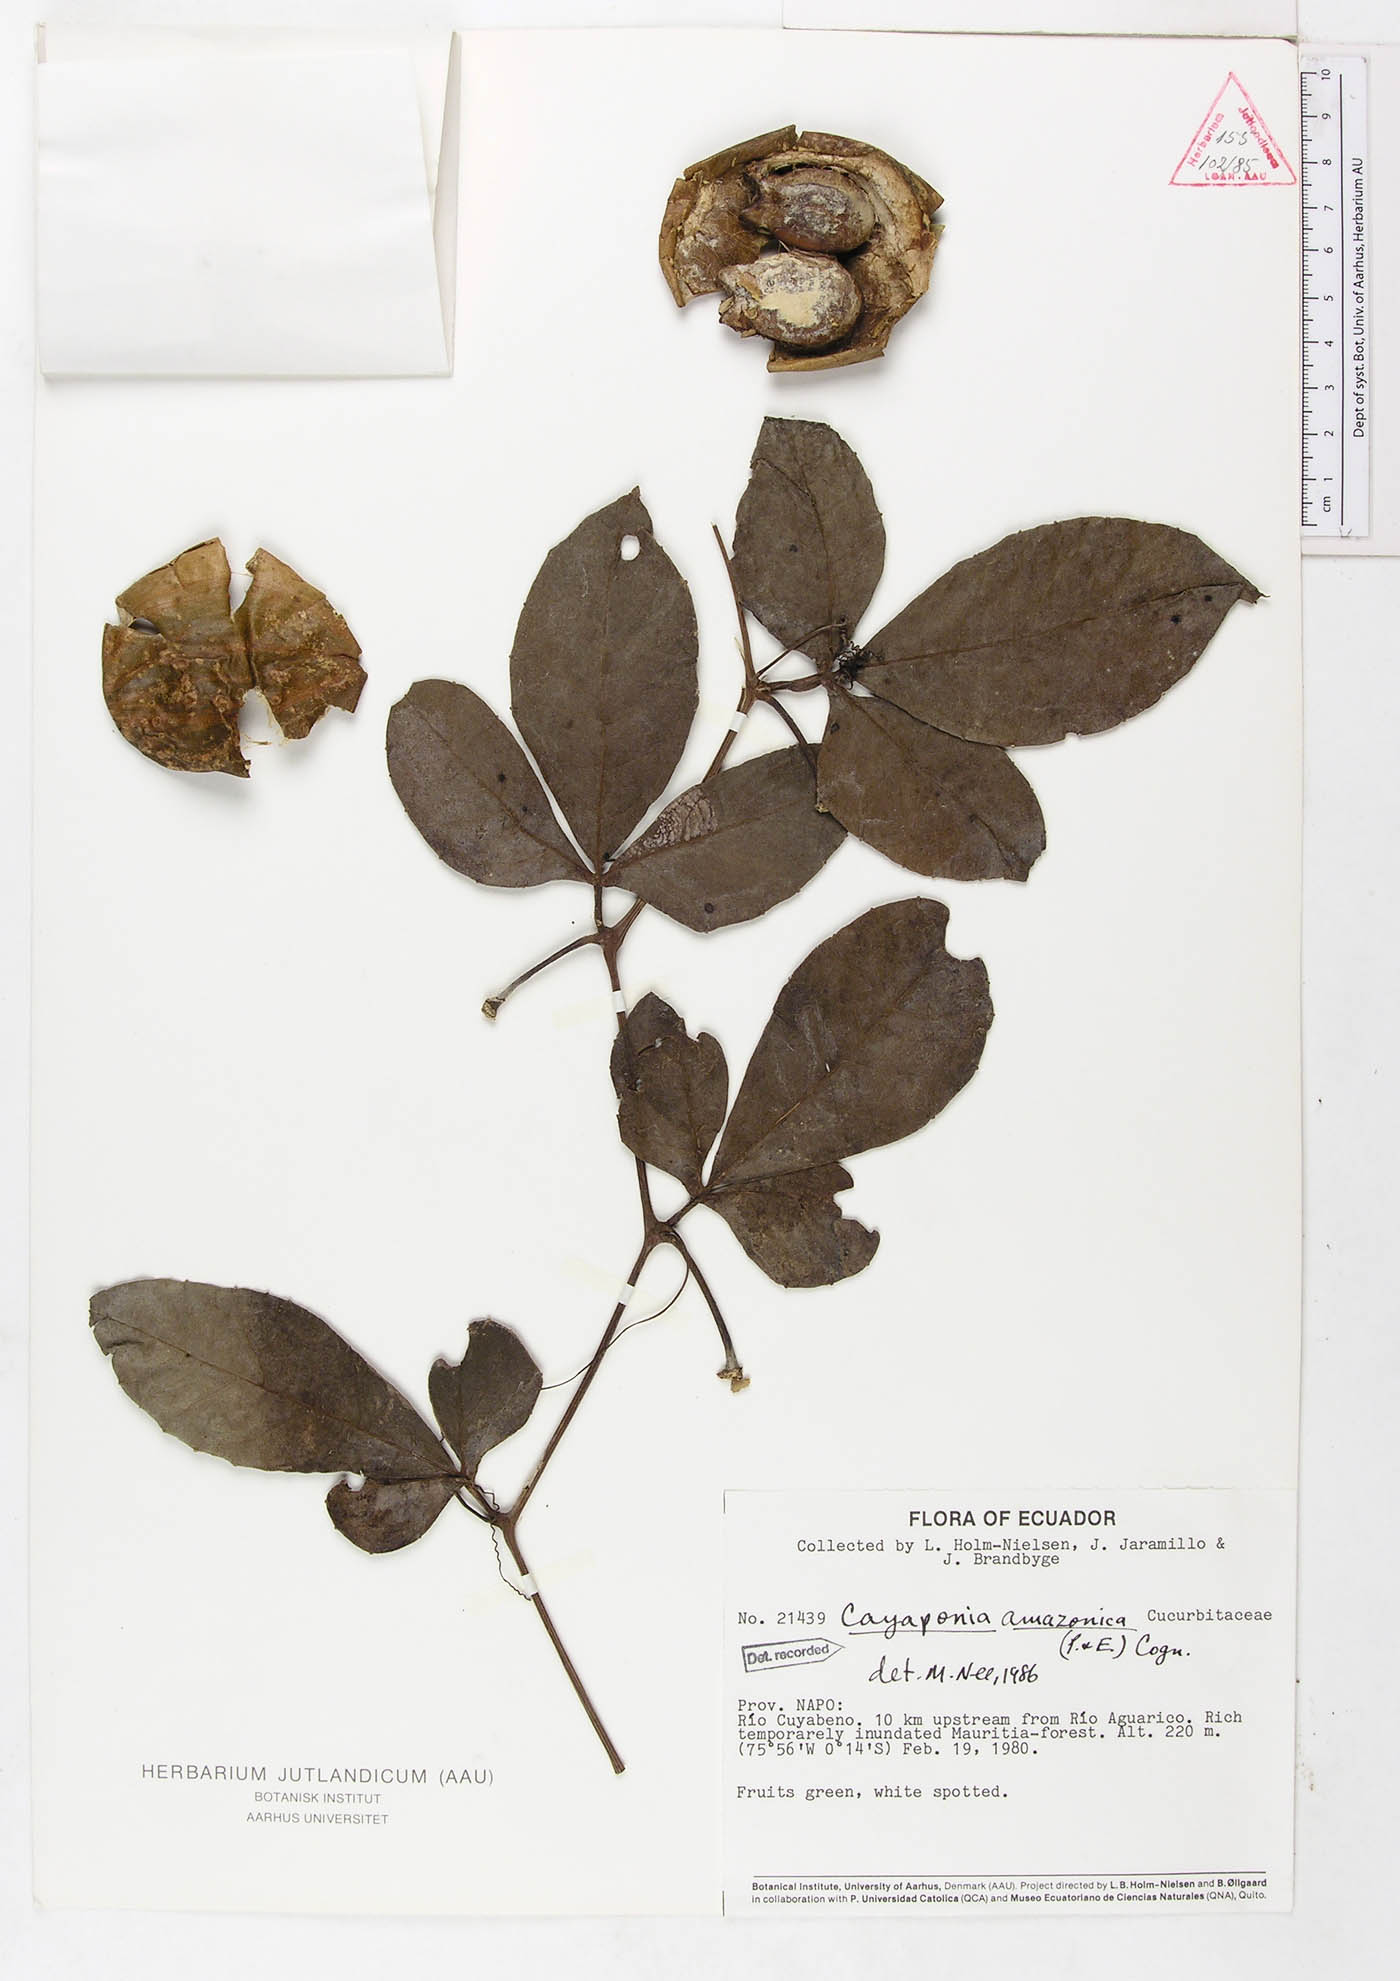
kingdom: Plantae
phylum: Tracheophyta
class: Magnoliopsida
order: Cucurbitales
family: Cucurbitaceae
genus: Cayaponia
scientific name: Cayaponia amazonica
